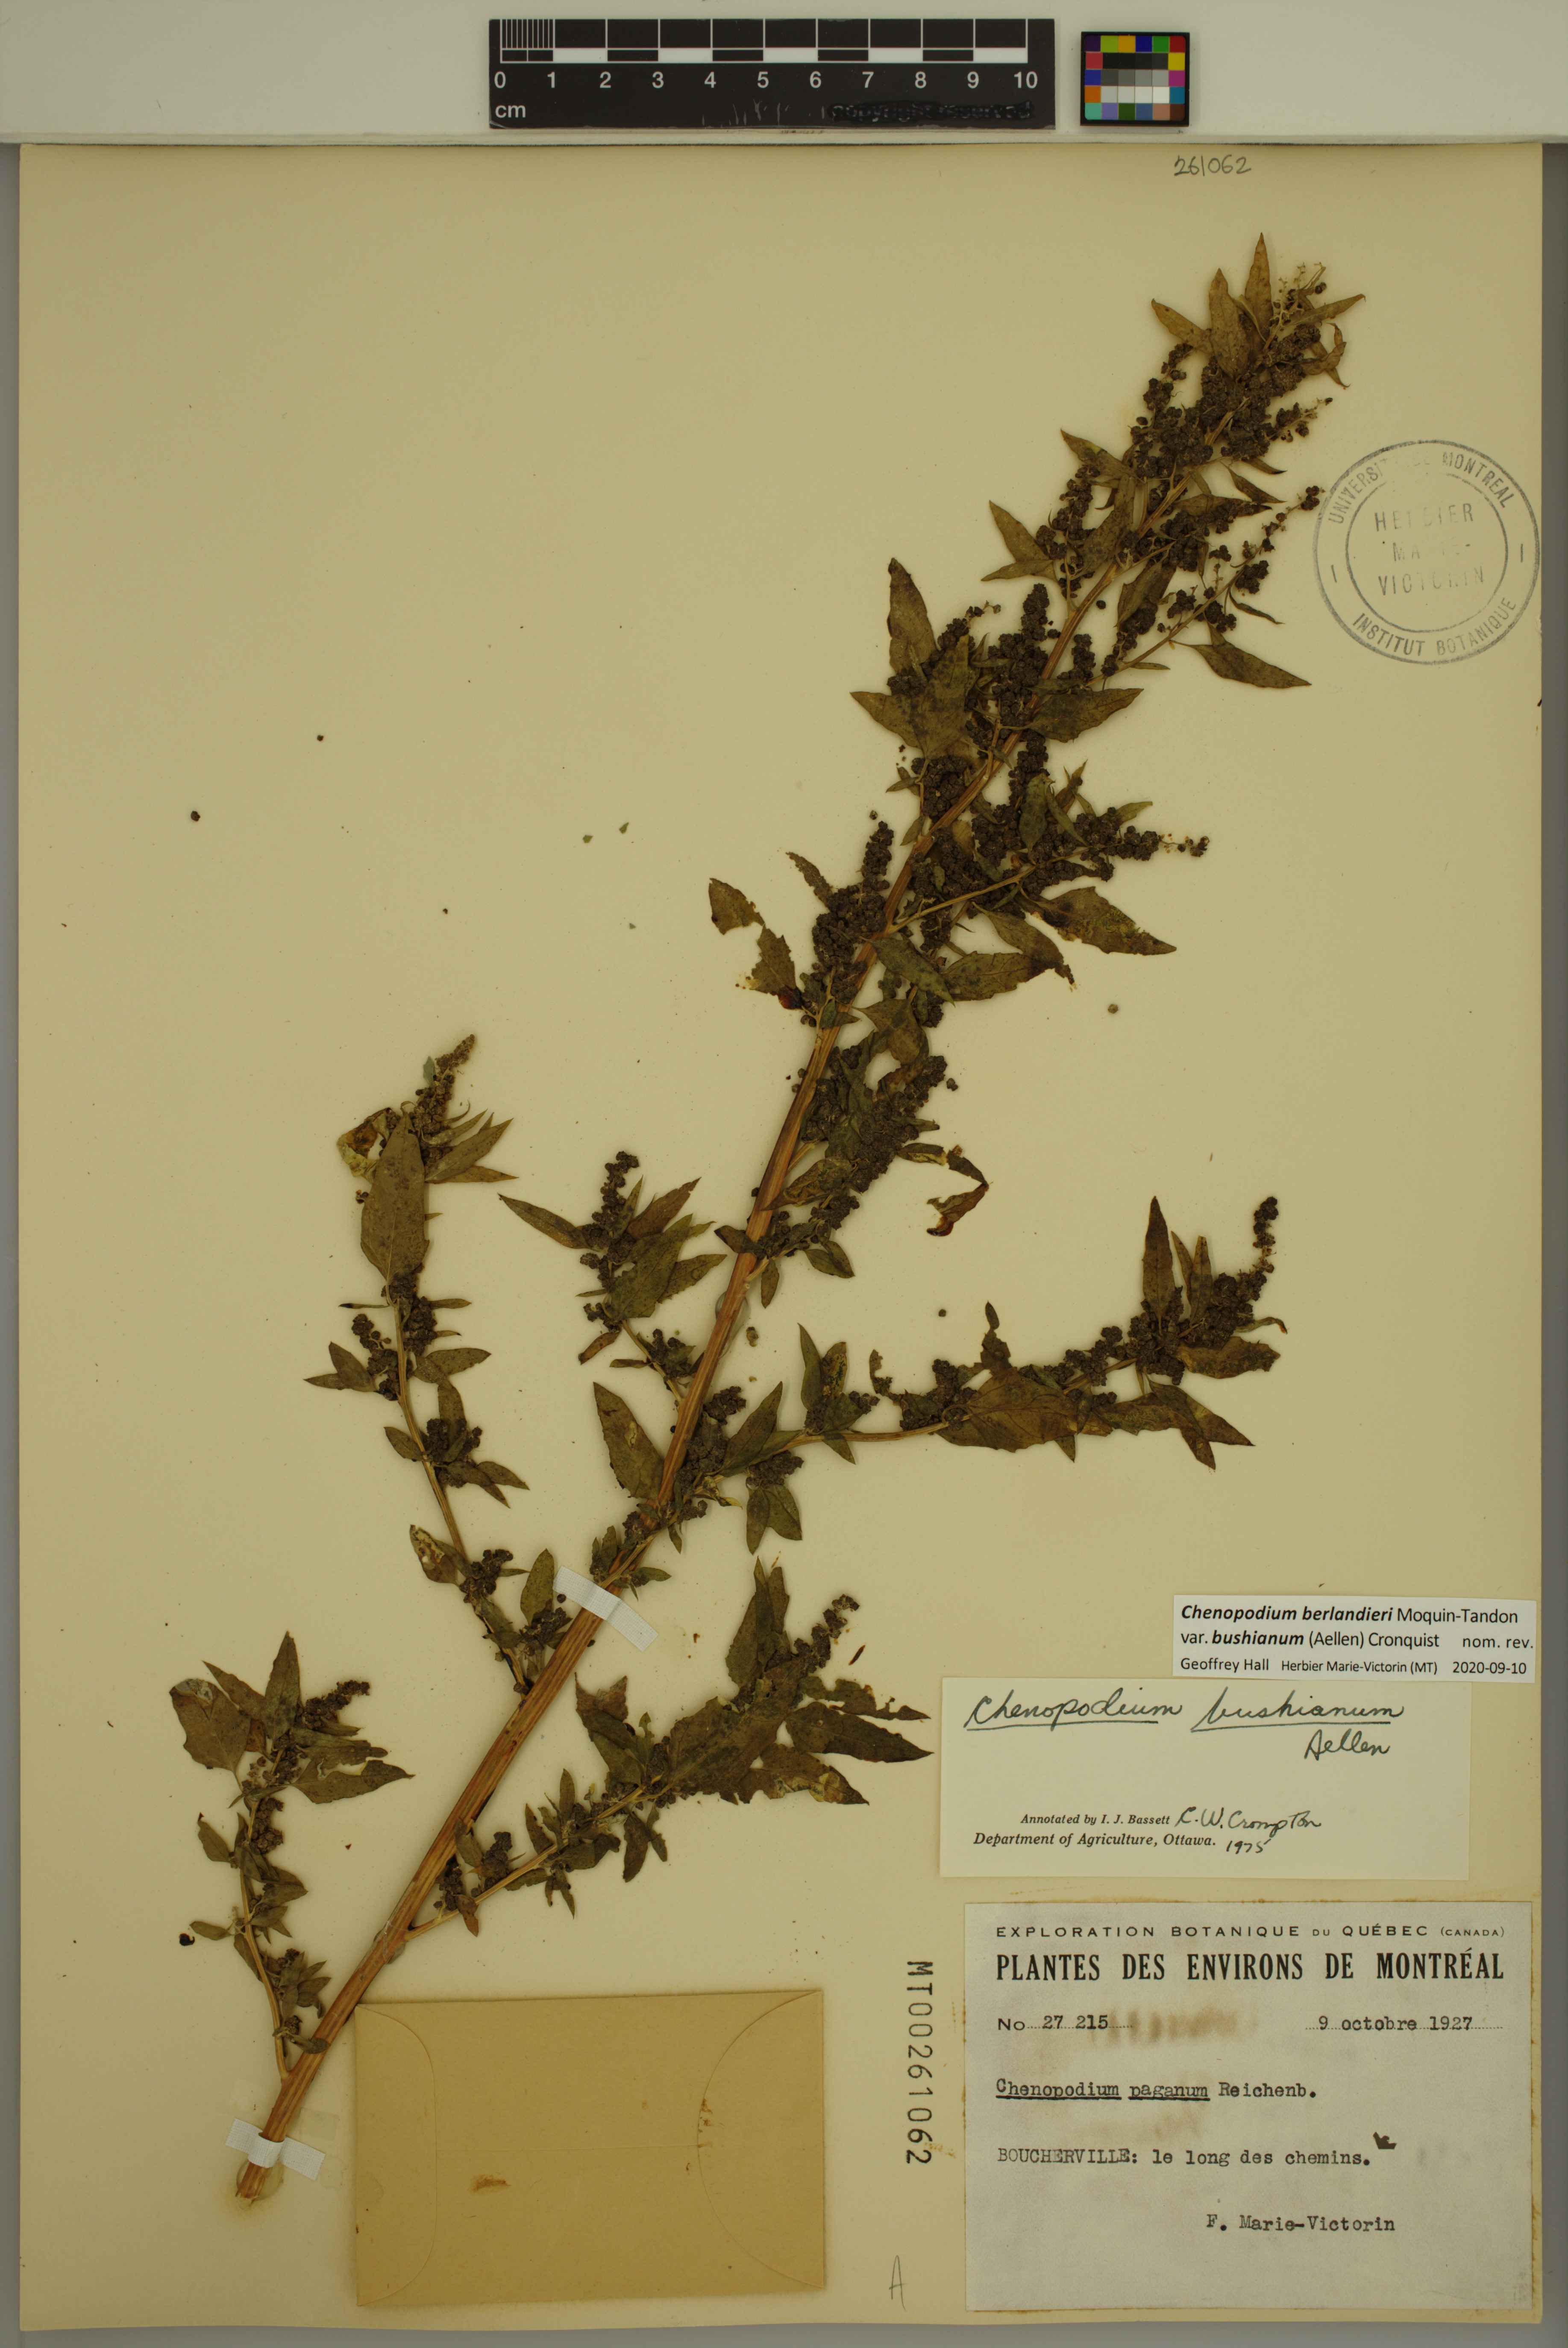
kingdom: Plantae
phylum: Tracheophyta
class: Magnoliopsida
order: Caryophyllales
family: Amaranthaceae
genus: Chenopodium
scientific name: Chenopodium berlandieri
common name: Pit-seed goosefoot
